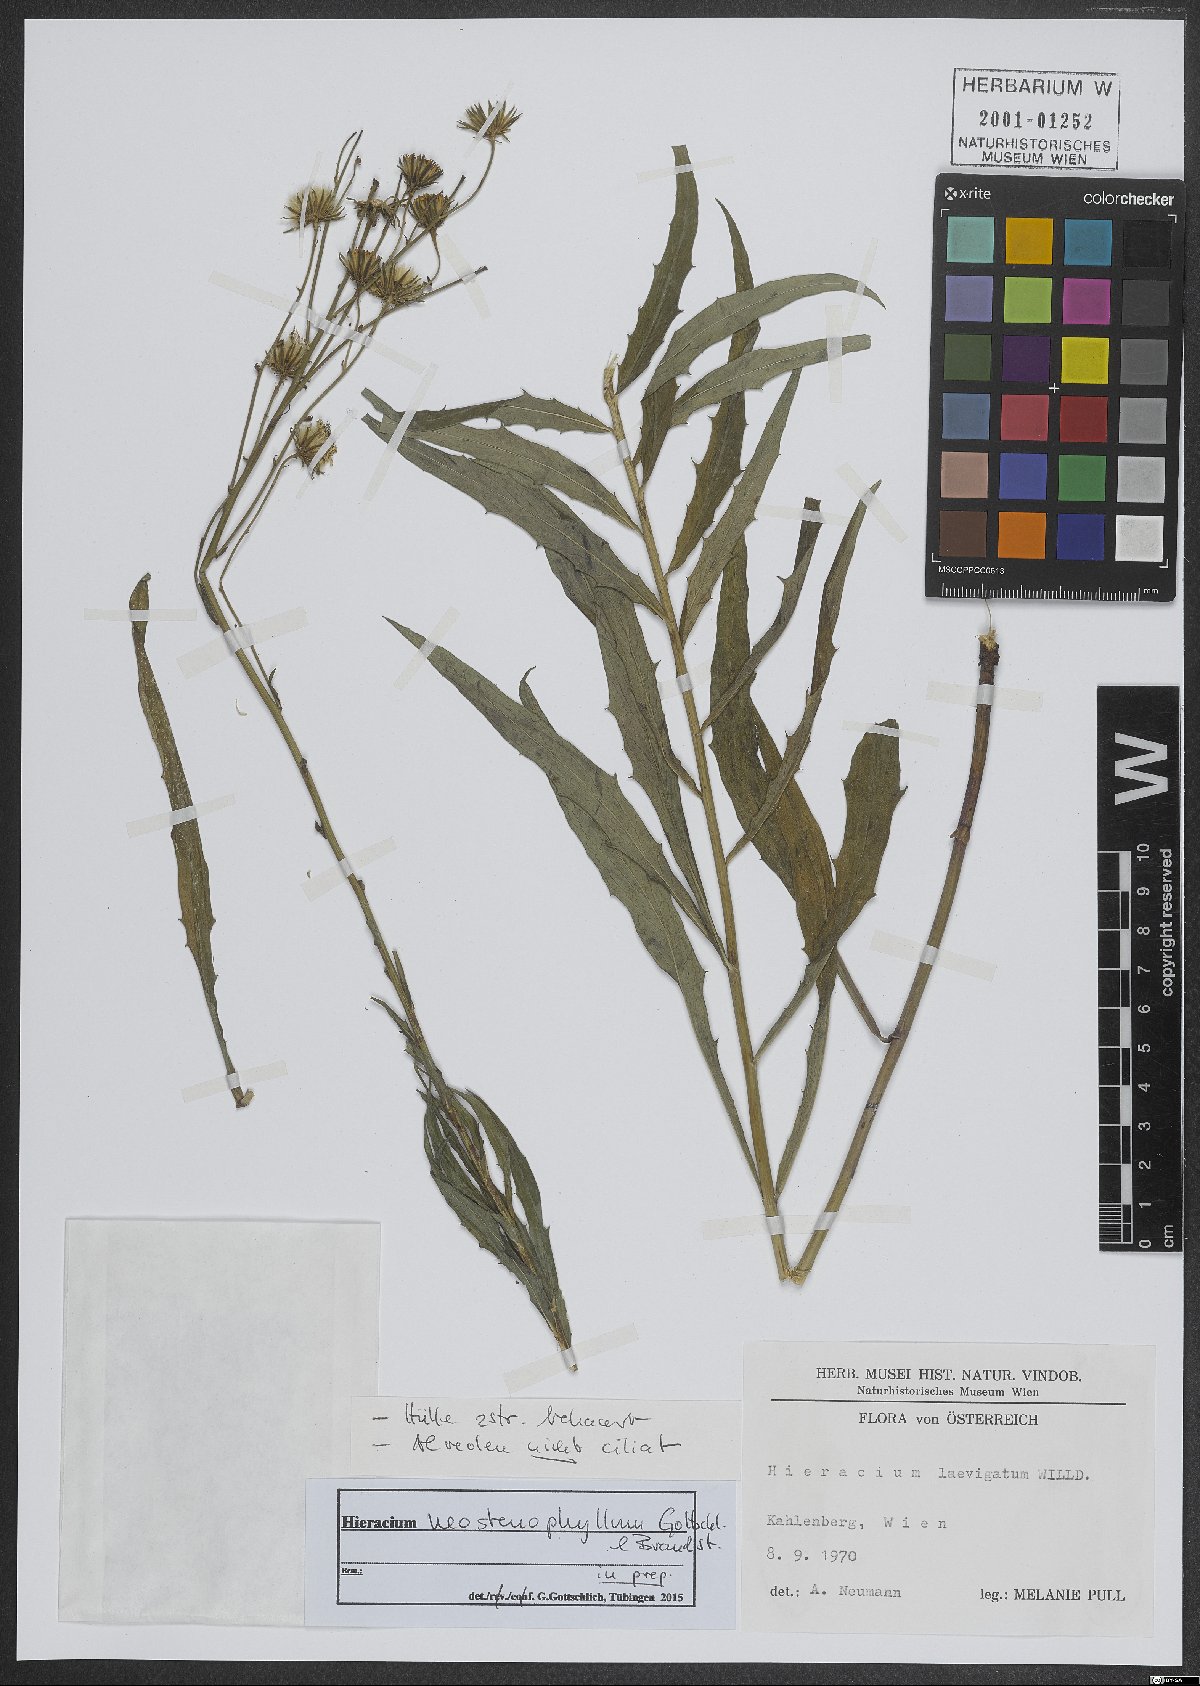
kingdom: Plantae
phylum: Tracheophyta
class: Magnoliopsida
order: Asterales
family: Asteraceae
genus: Hieracium
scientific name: Hieracium neostenophyllum
